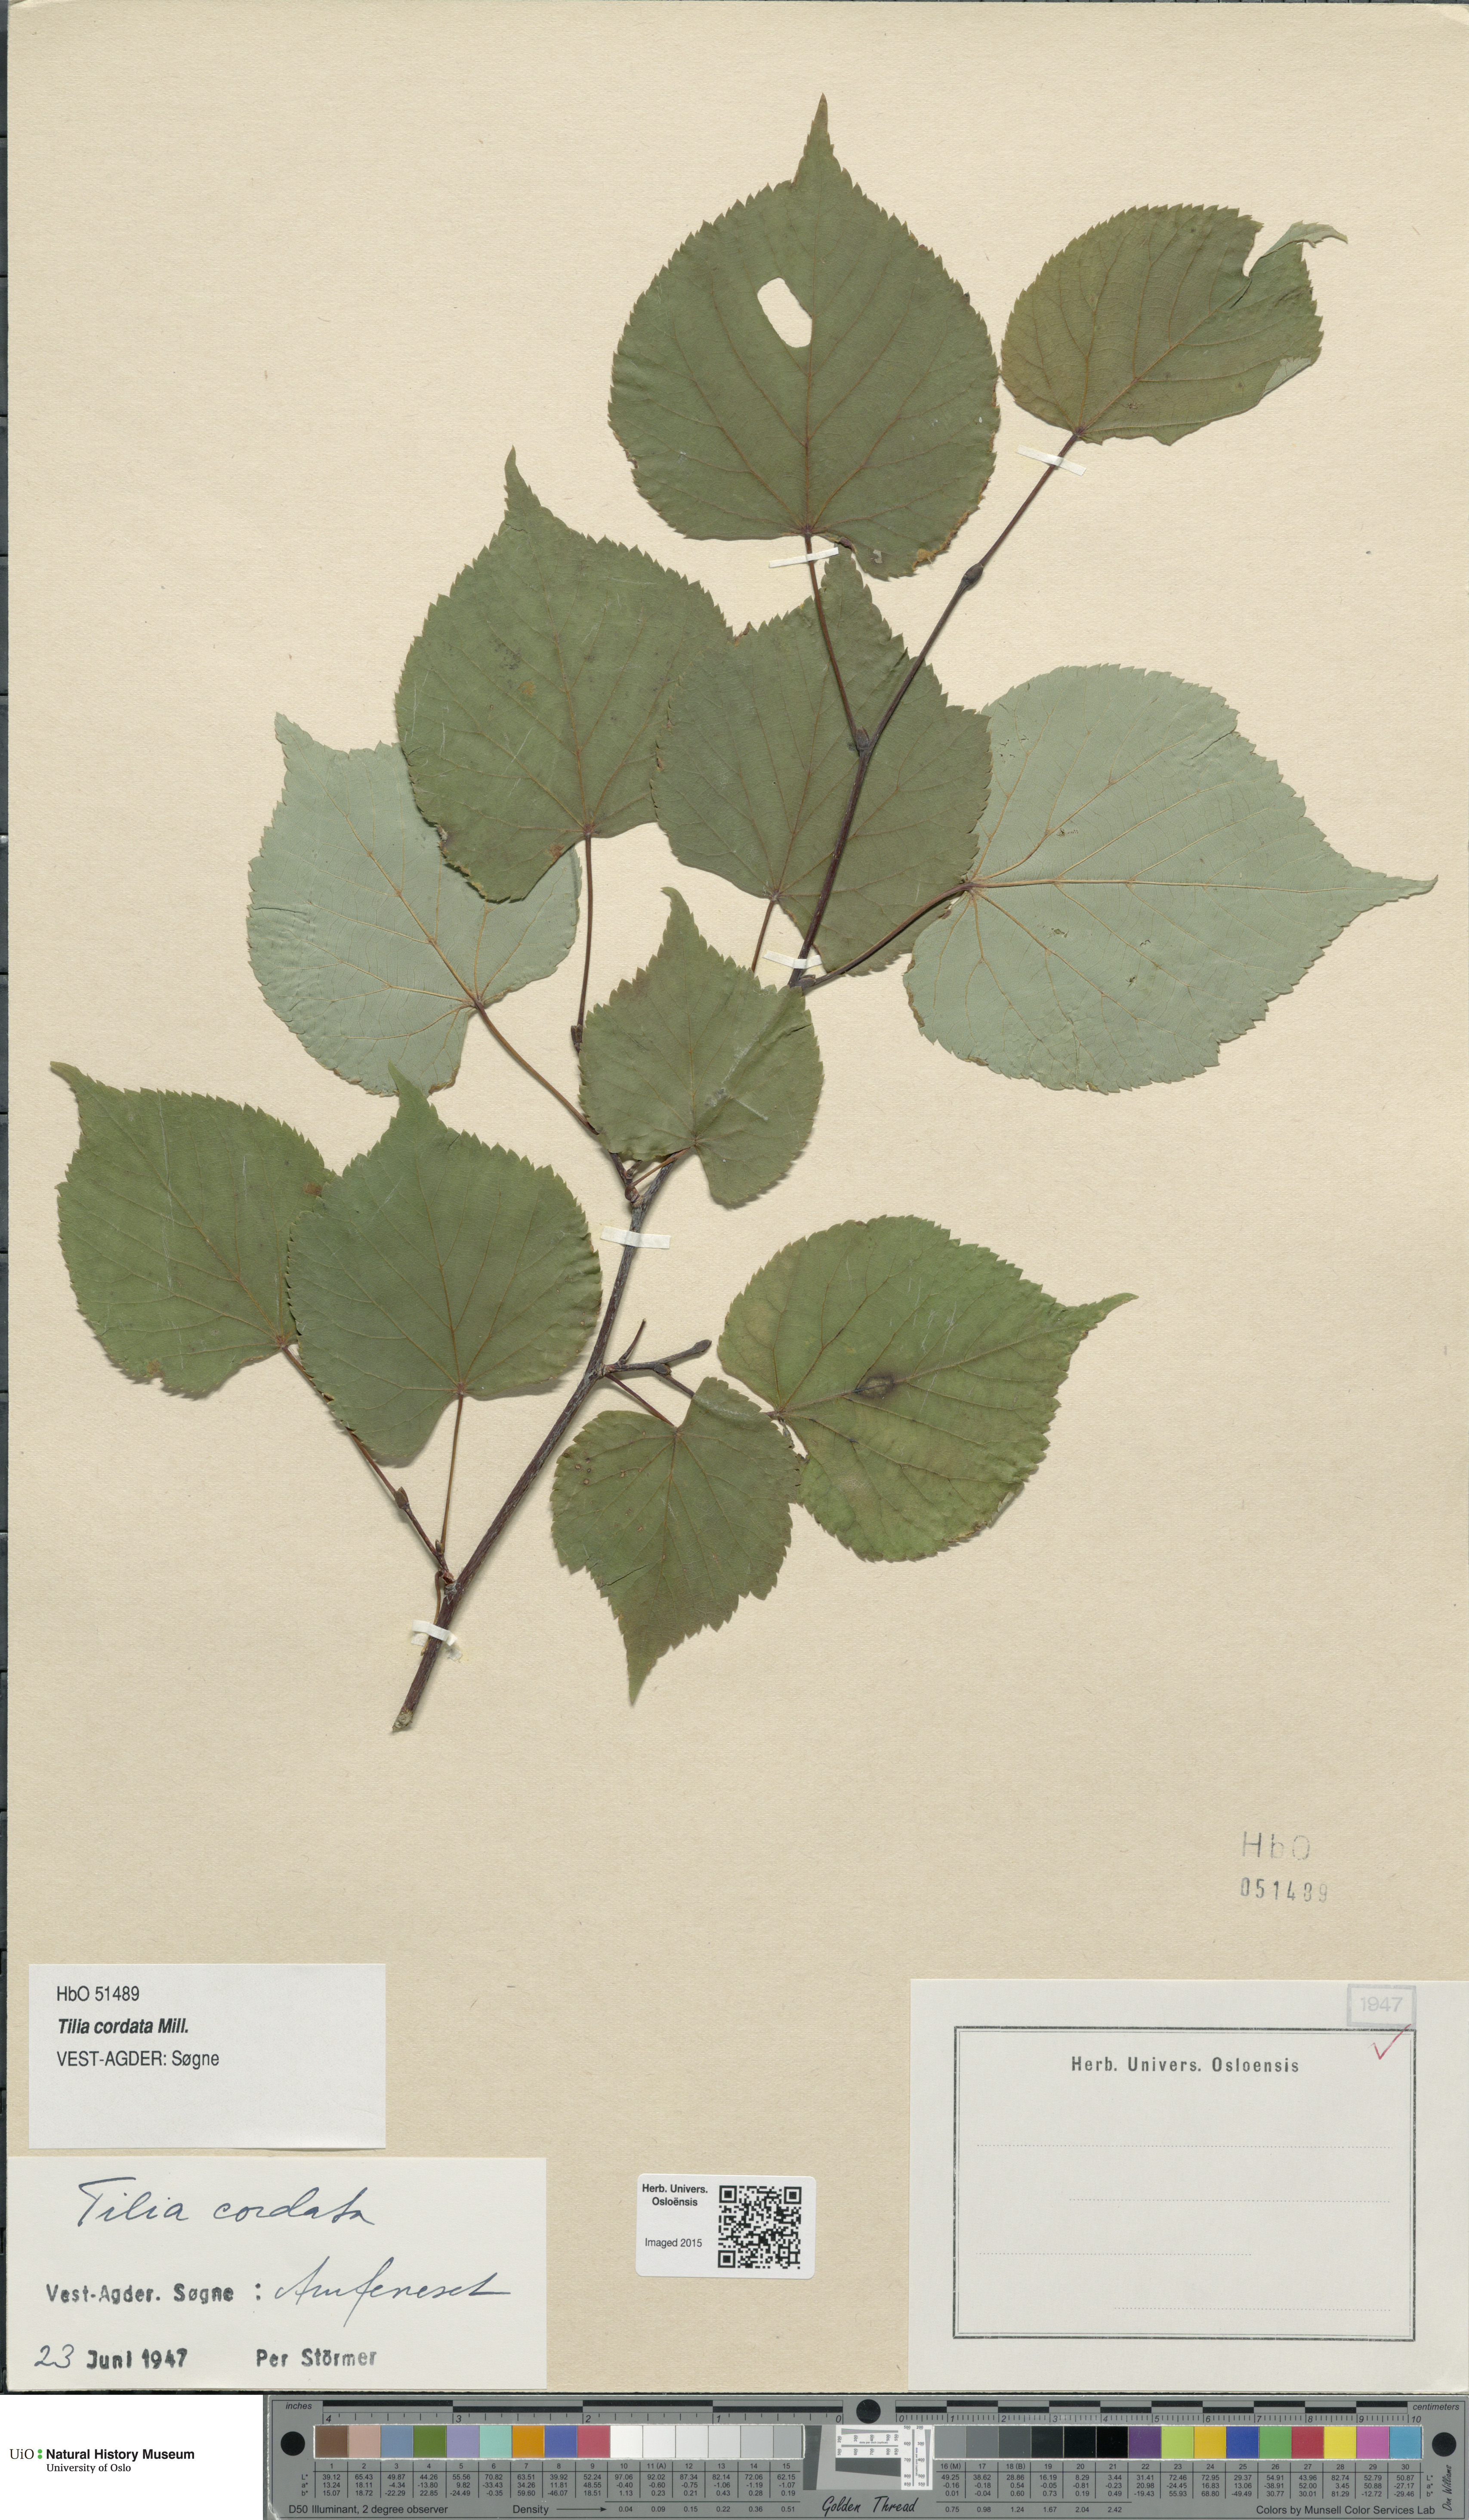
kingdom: Plantae
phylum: Tracheophyta
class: Magnoliopsida
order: Malvales
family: Malvaceae
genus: Tilia
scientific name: Tilia cordata
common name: Small-leaved lime
